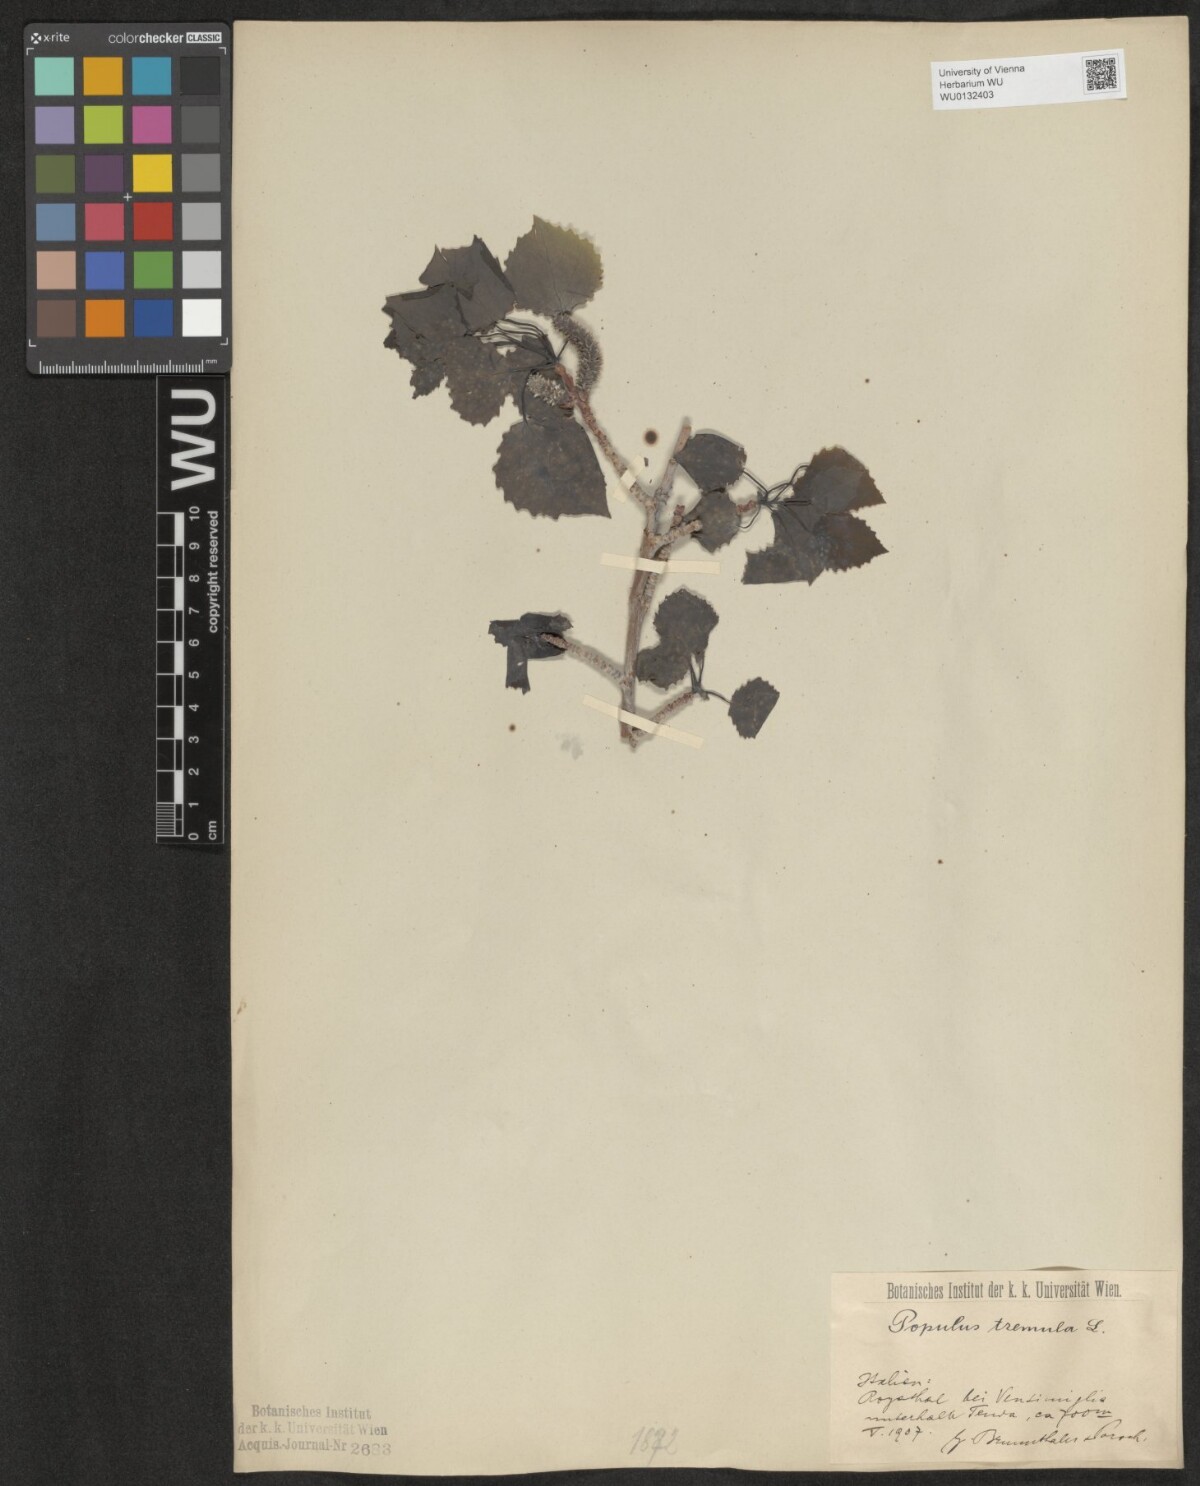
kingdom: Plantae
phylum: Tracheophyta
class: Magnoliopsida
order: Malpighiales
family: Salicaceae
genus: Populus
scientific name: Populus tremula
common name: European aspen
